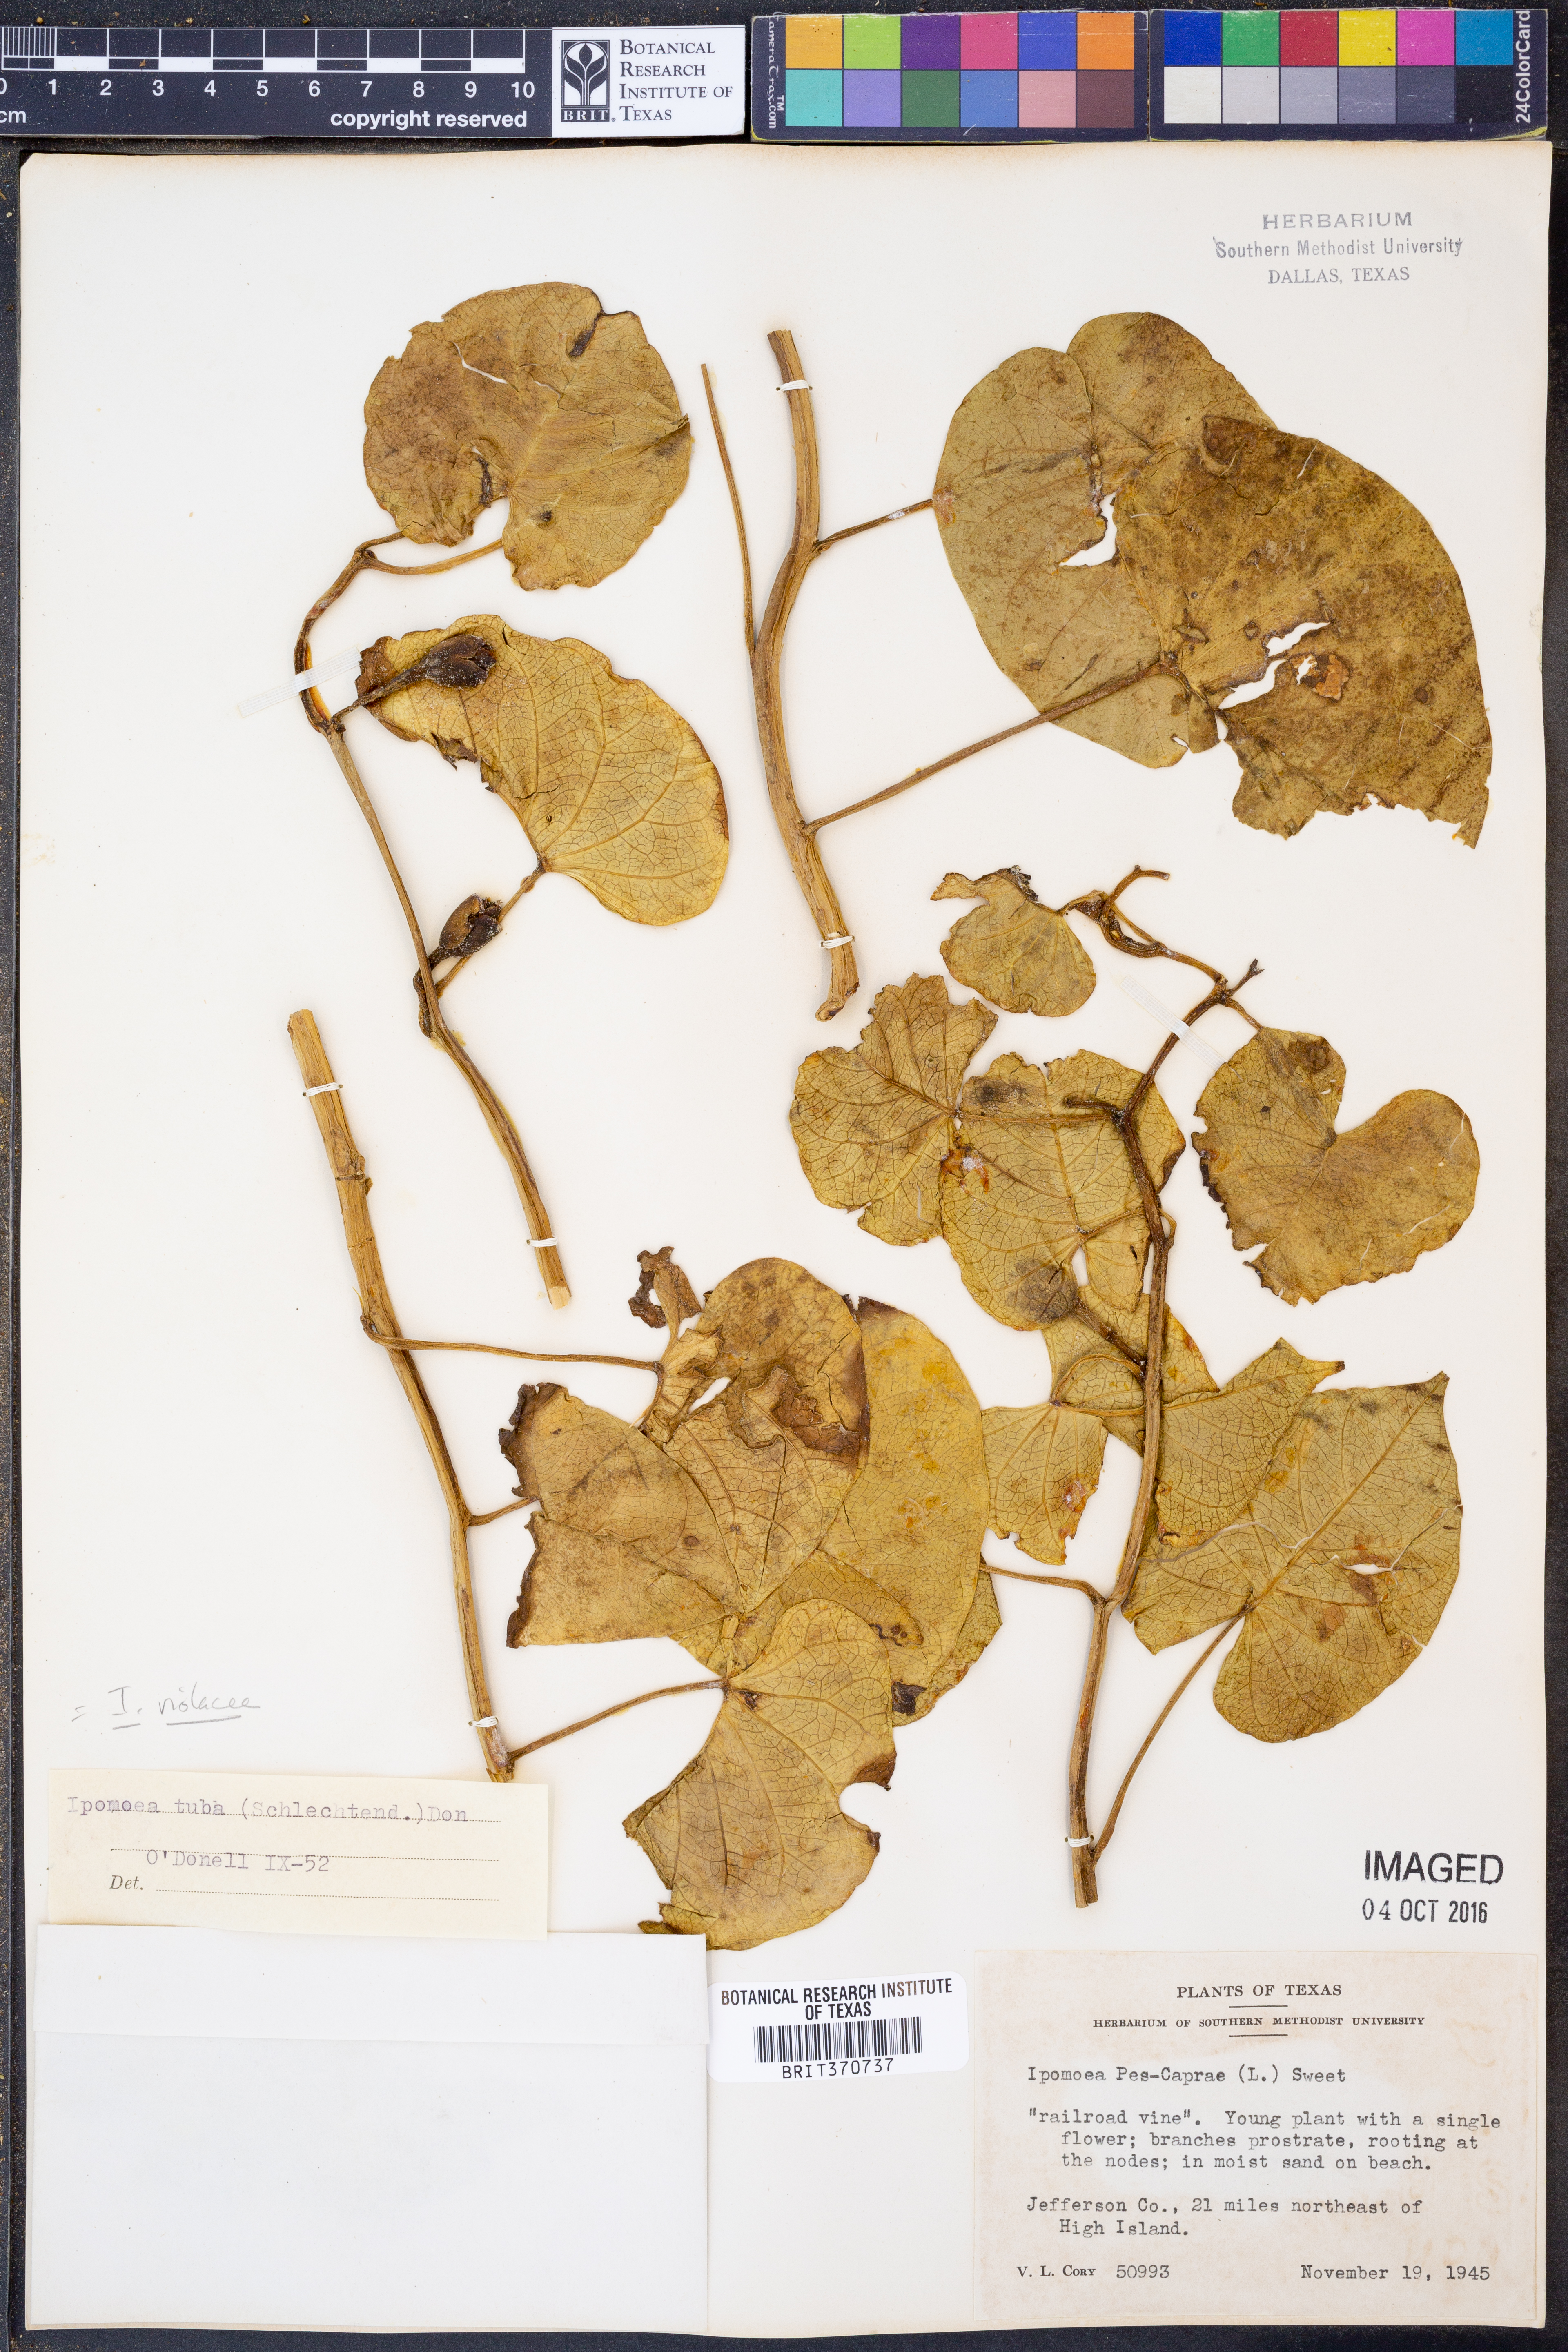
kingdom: Plantae
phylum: Tracheophyta
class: Magnoliopsida
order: Solanales
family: Convolvulaceae
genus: Ipomoea
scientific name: Ipomoea violacea
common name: Beach moonflower
